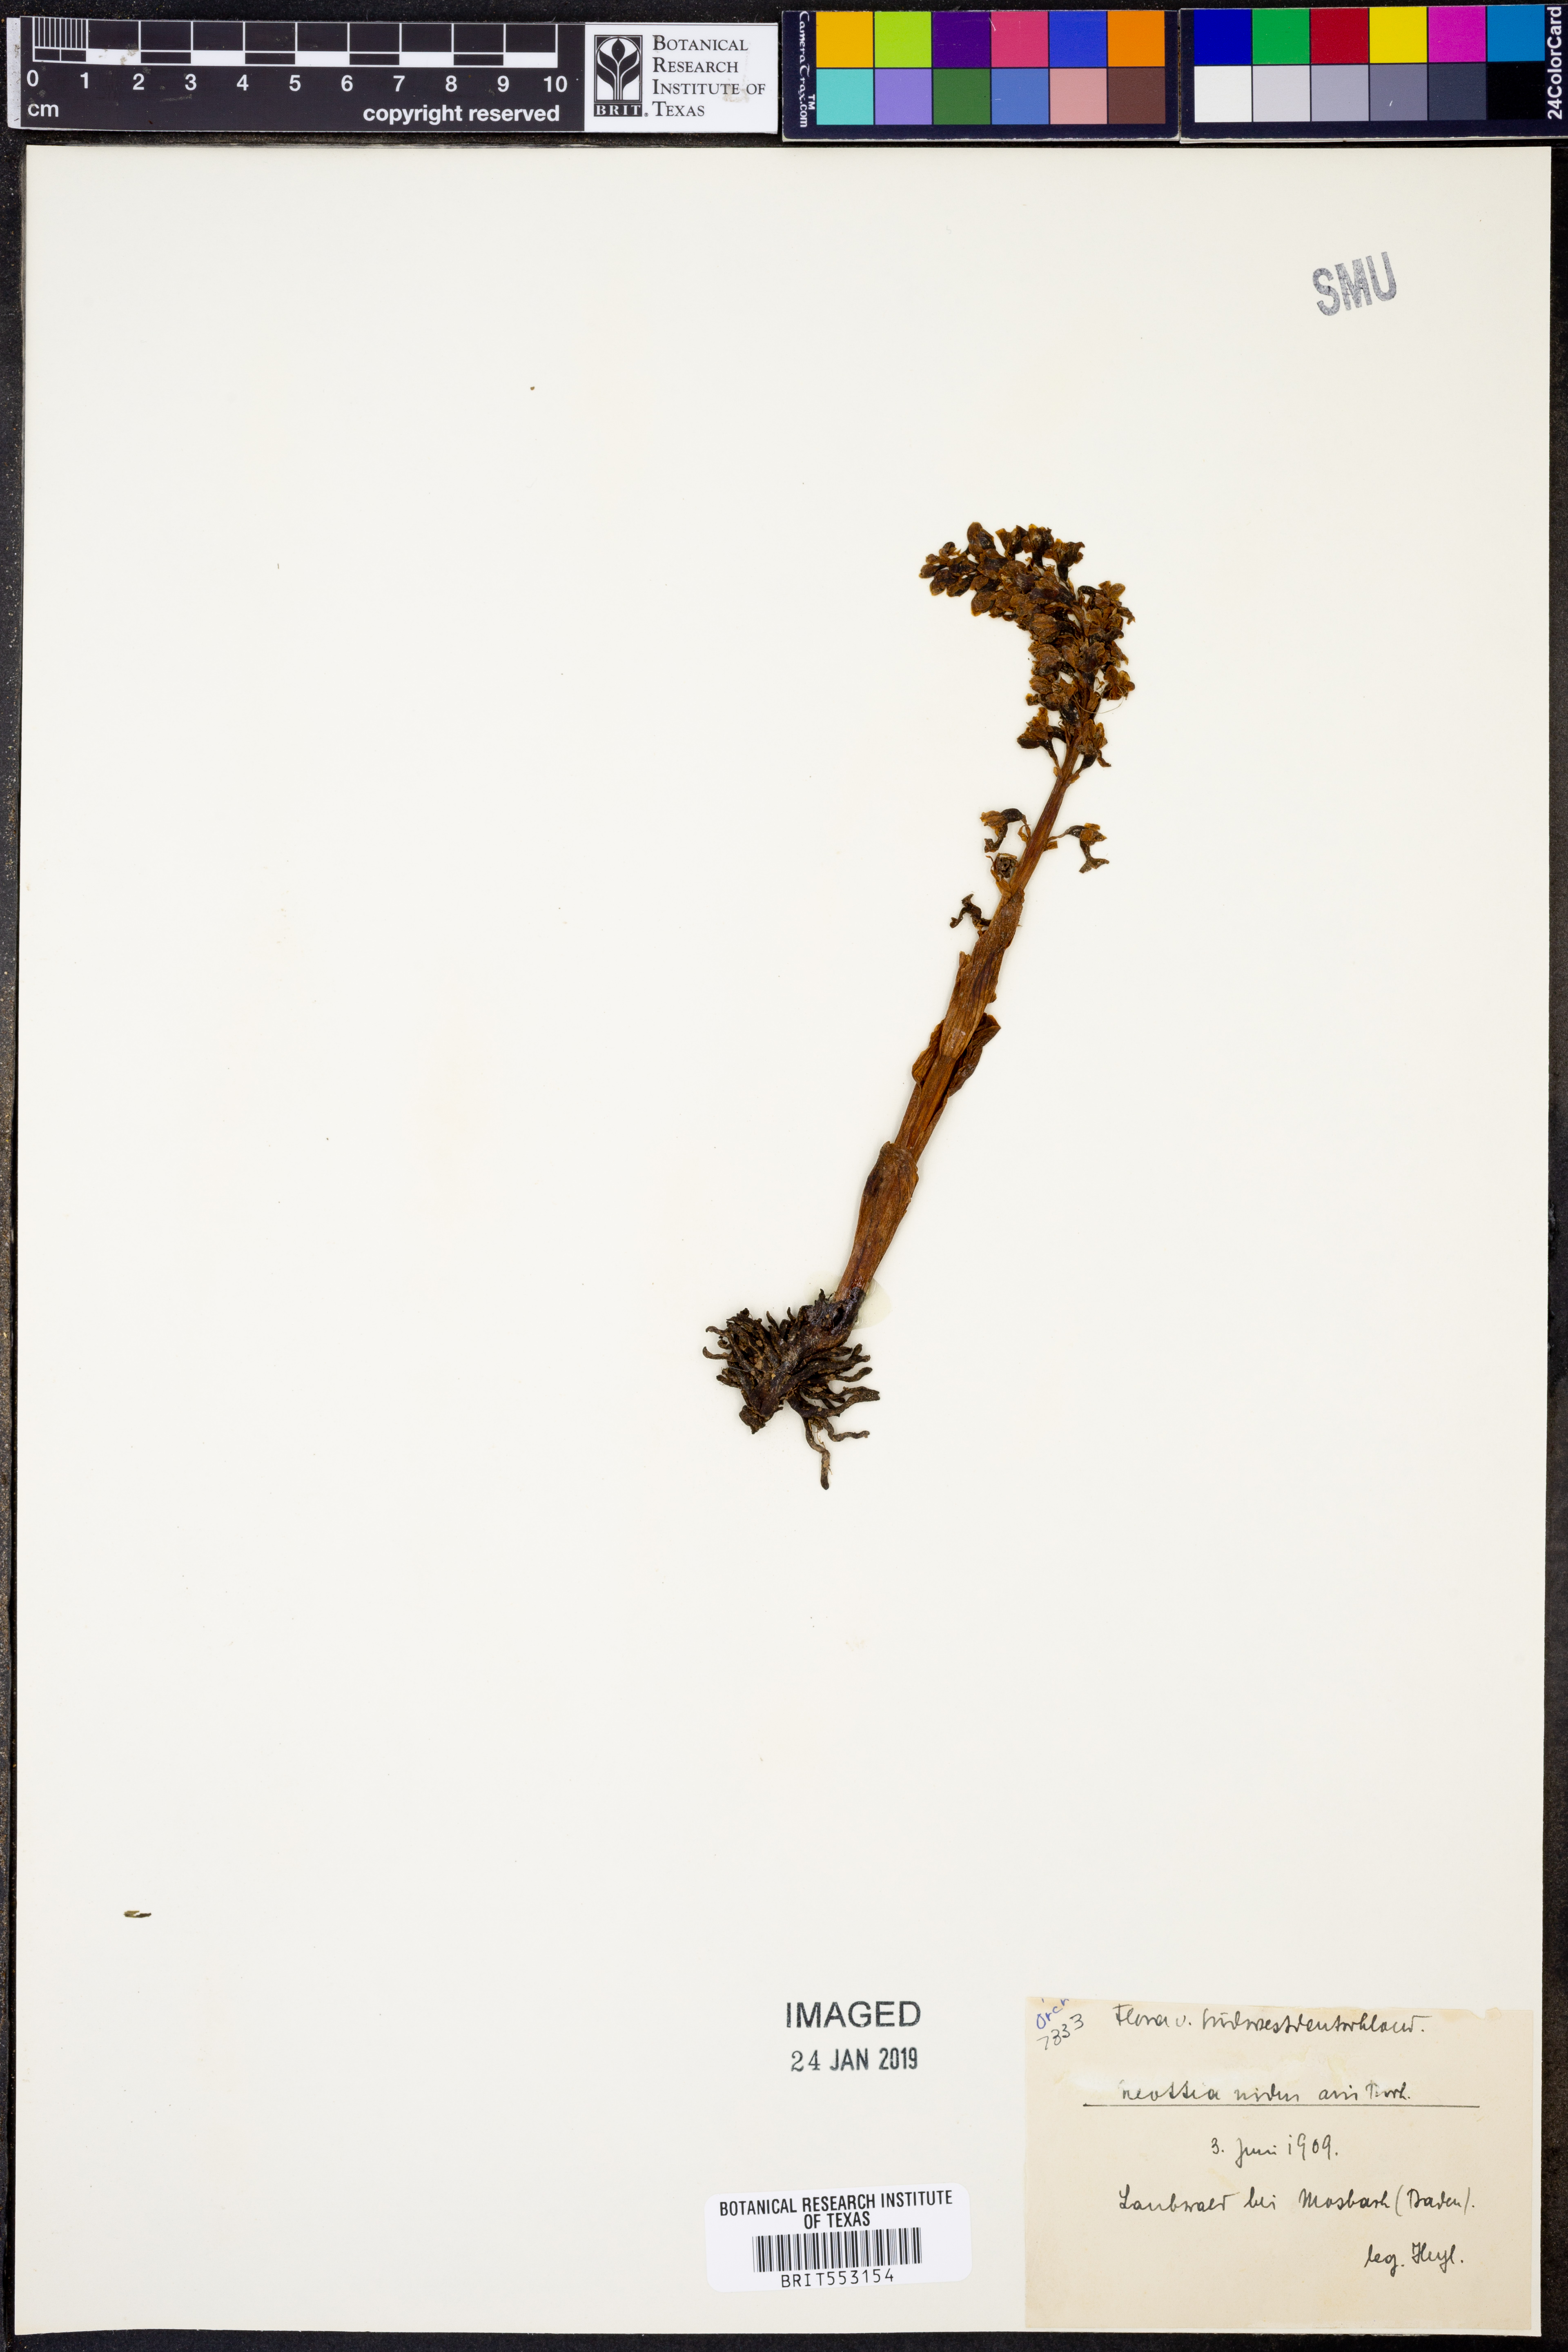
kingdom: Plantae
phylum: Tracheophyta
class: Liliopsida
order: Asparagales
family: Orchidaceae
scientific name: Orchidaceae
